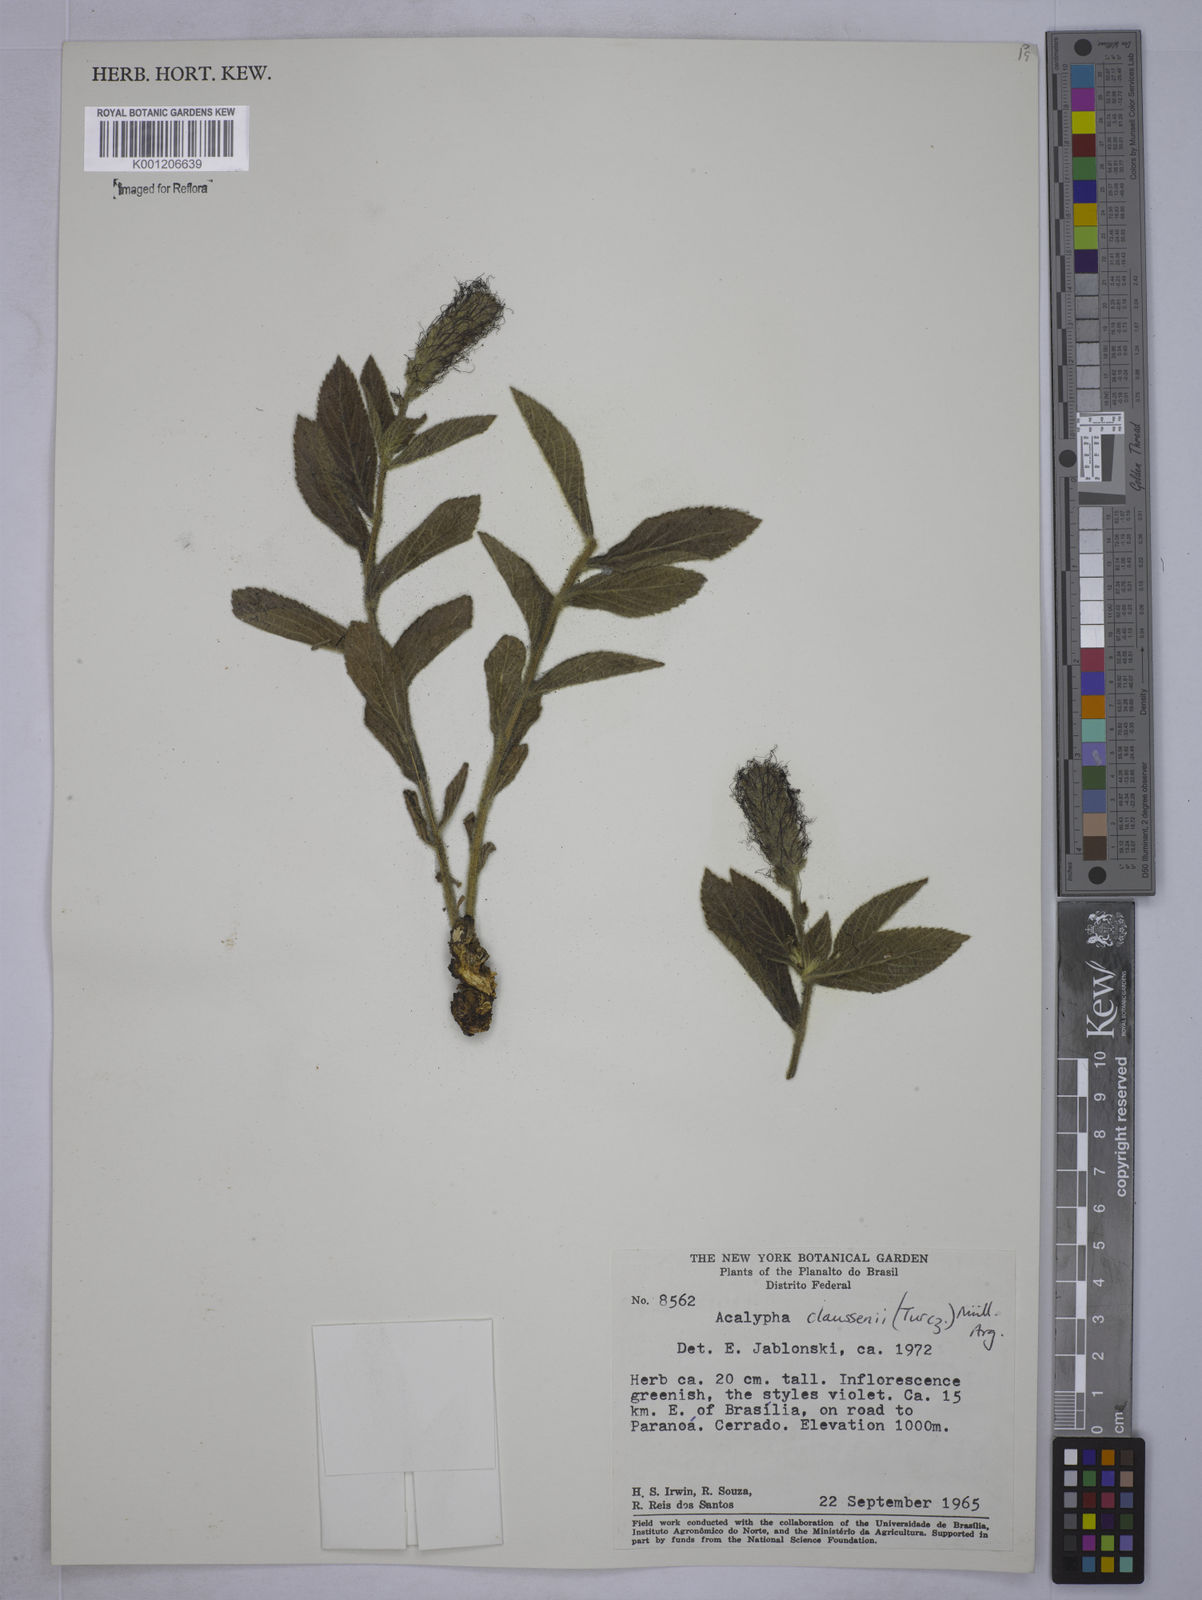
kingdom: Plantae
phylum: Tracheophyta
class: Magnoliopsida
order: Malpighiales
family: Euphorbiaceae
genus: Acalypha
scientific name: Acalypha
